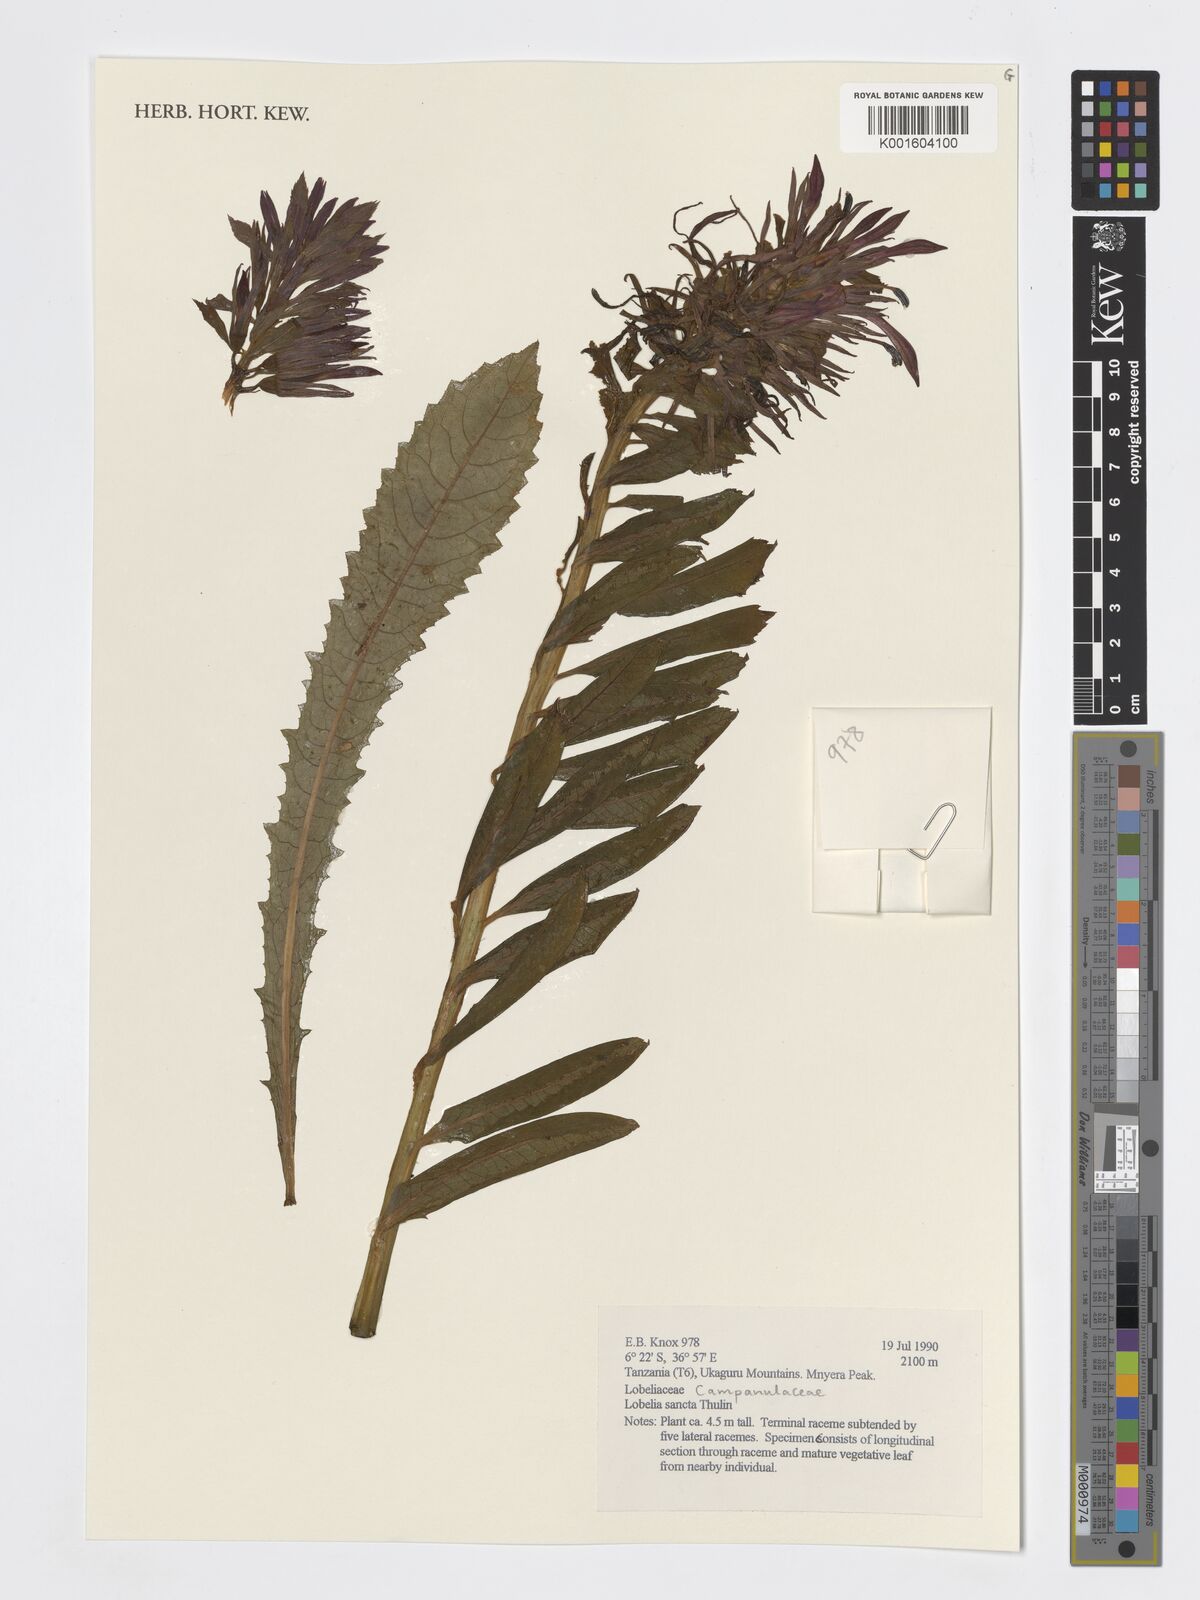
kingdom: Plantae
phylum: Tracheophyta
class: Magnoliopsida
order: Asterales
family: Campanulaceae
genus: Lobelia
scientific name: Lobelia sancta
